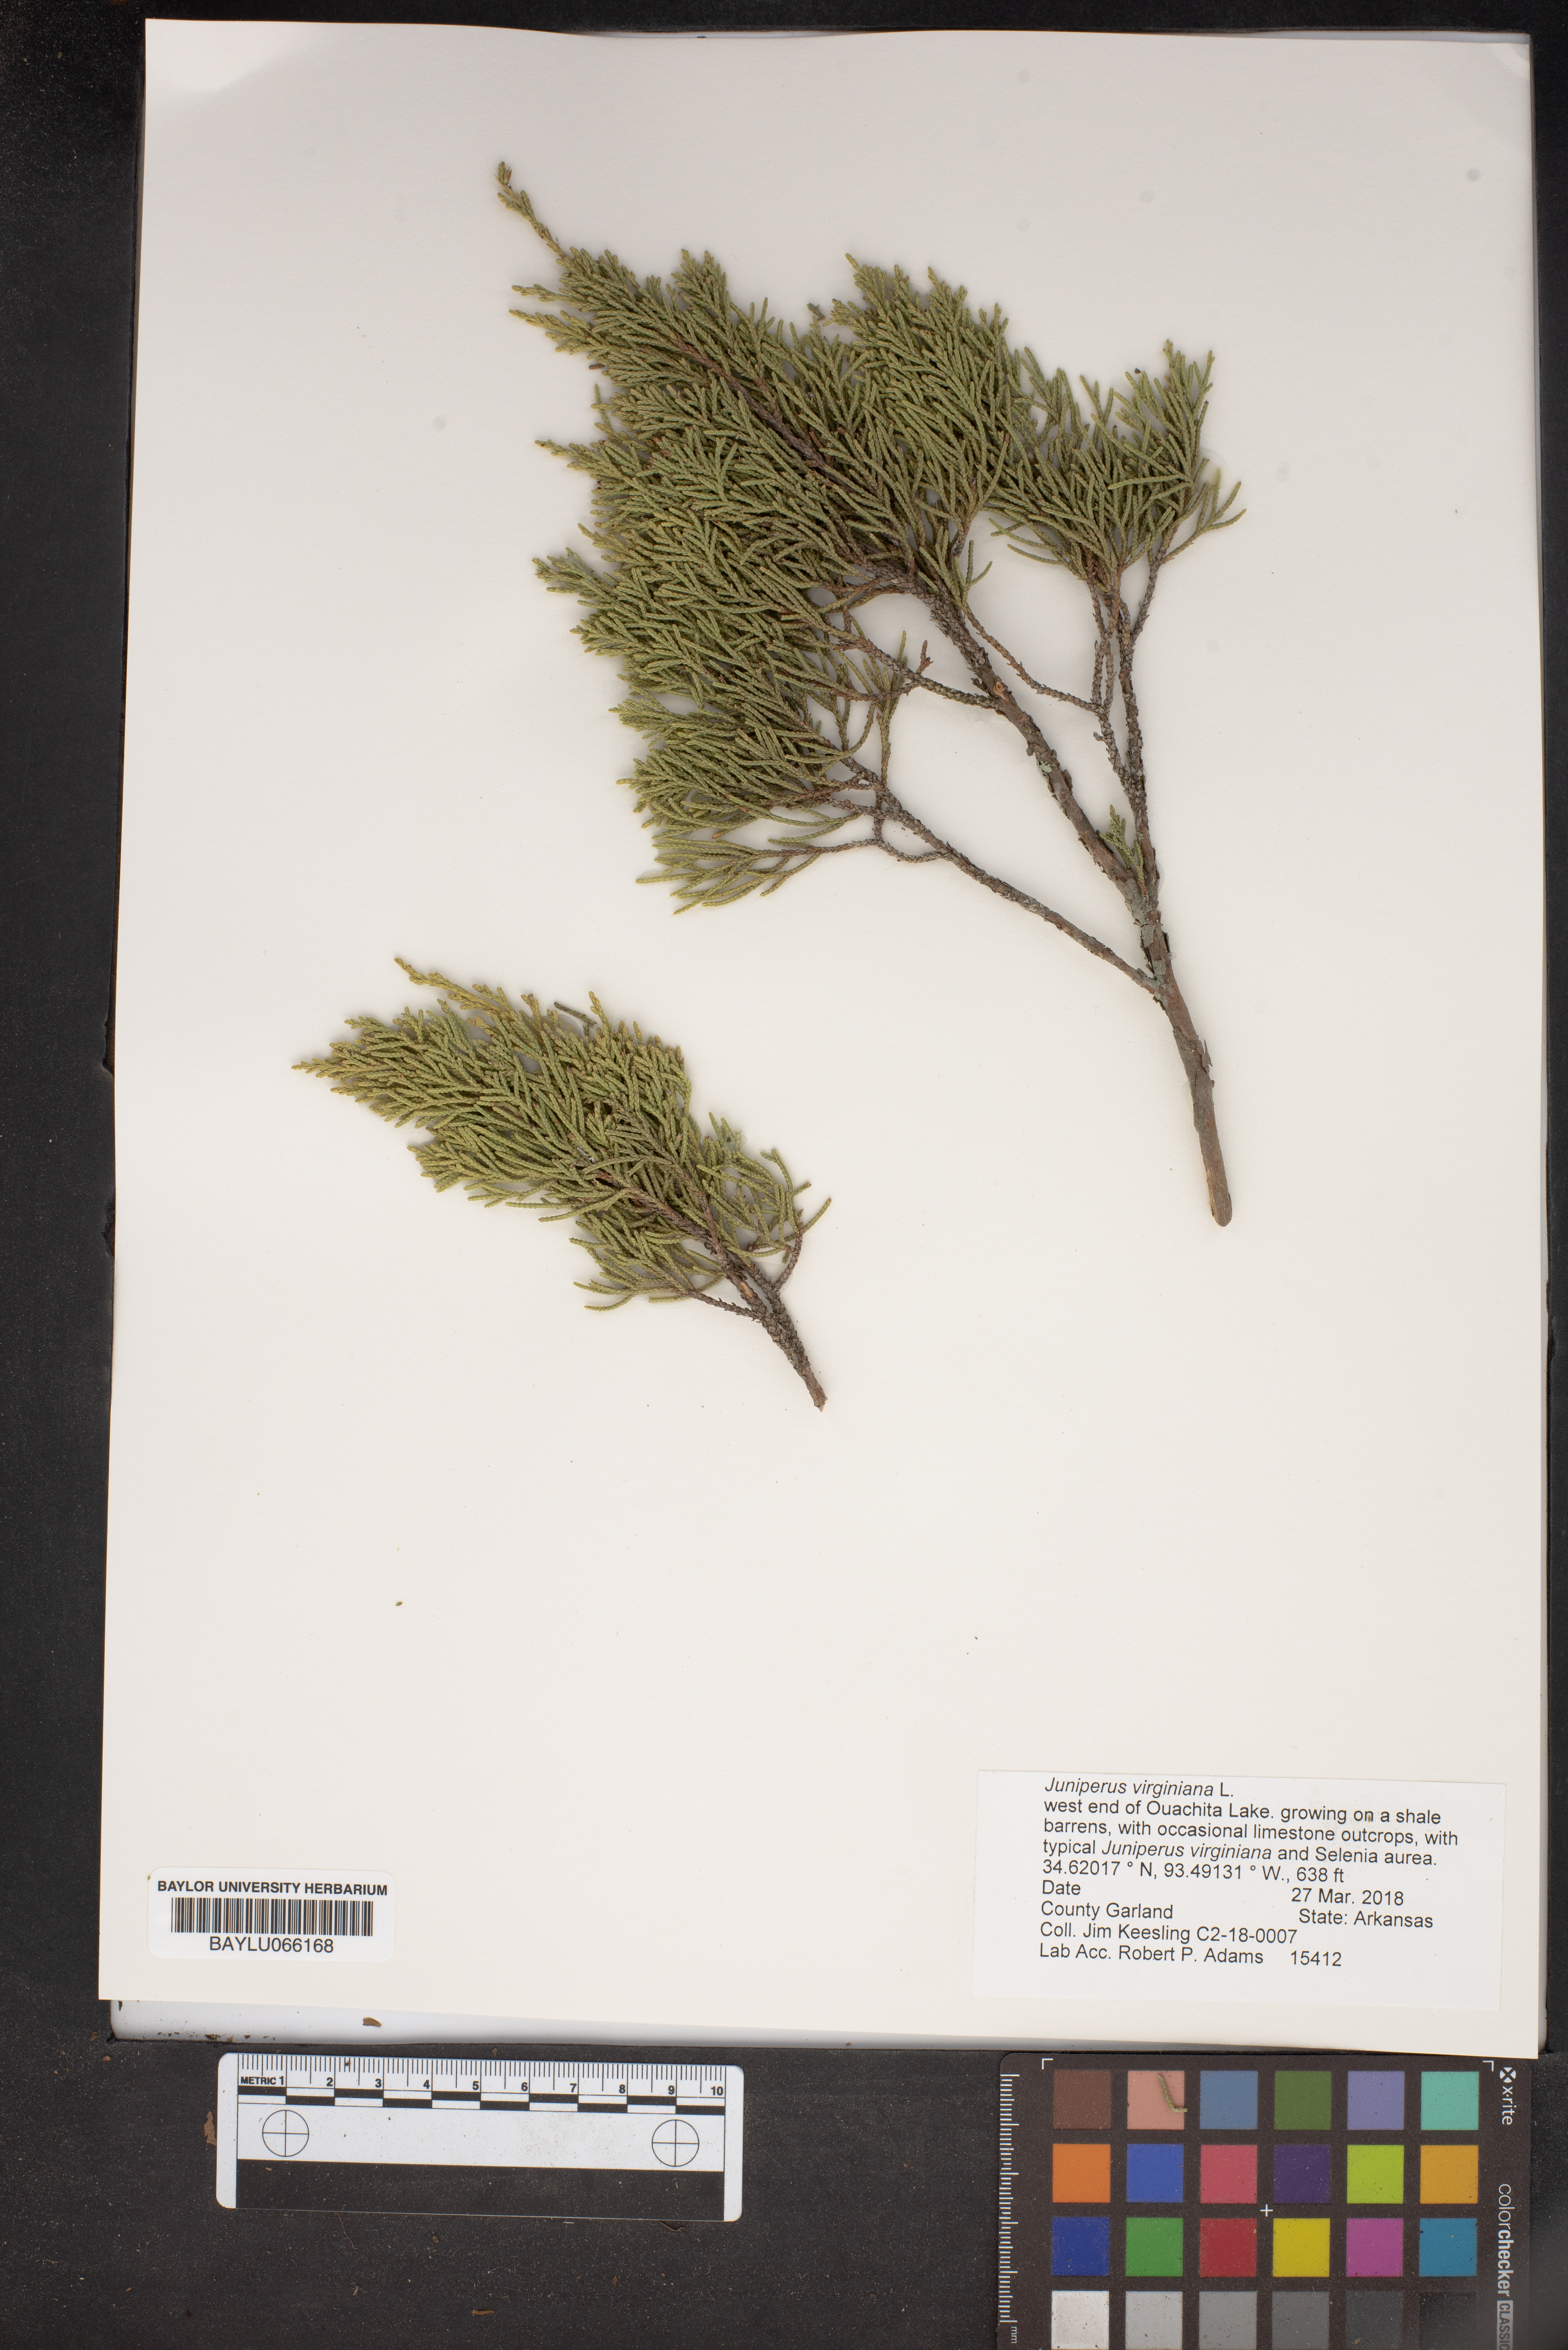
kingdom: Plantae
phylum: Tracheophyta
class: Pinopsida
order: Pinales
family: Cupressaceae
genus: Juniperus
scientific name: Juniperus virginiana
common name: Red juniper
